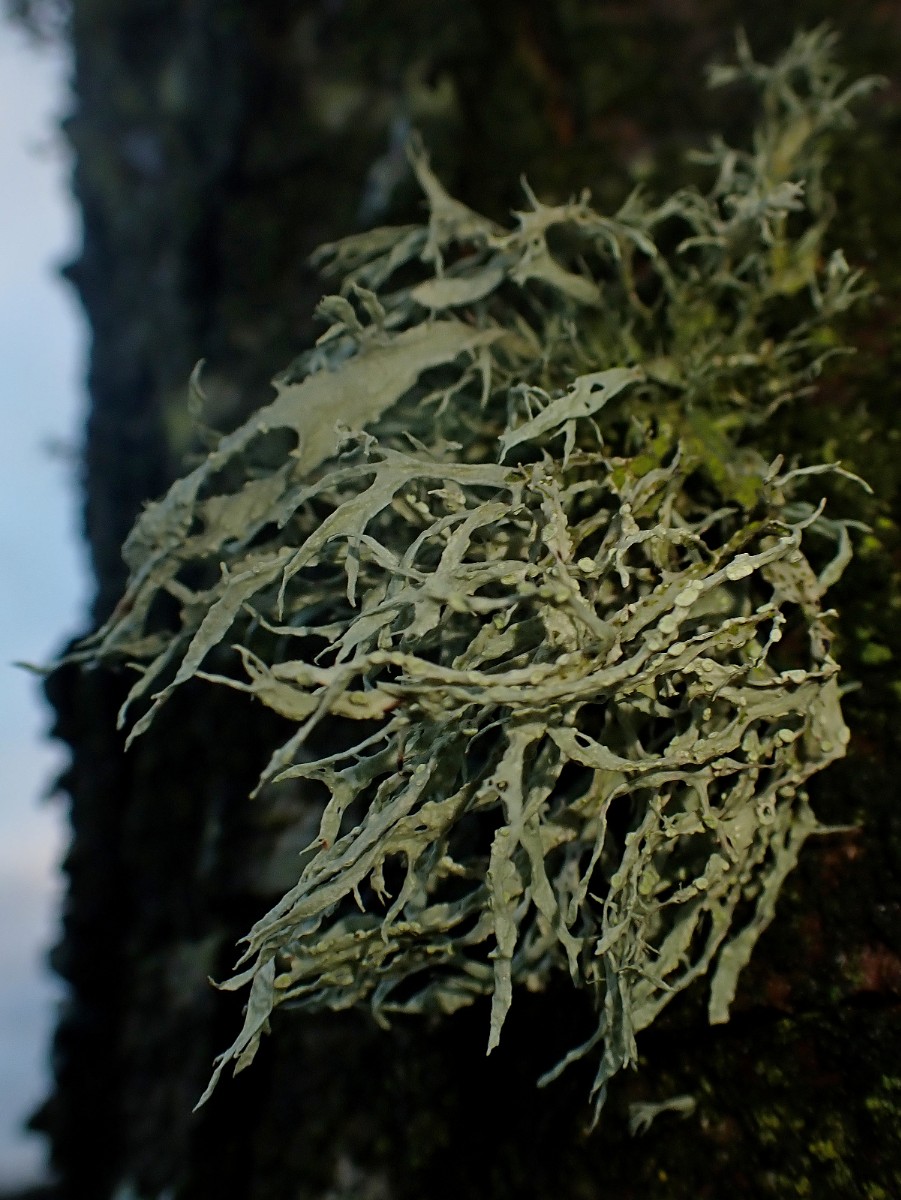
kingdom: Fungi
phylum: Ascomycota
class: Lecanoromycetes
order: Lecanorales
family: Ramalinaceae
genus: Ramalina
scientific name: Ramalina farinacea
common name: melet grenlav
